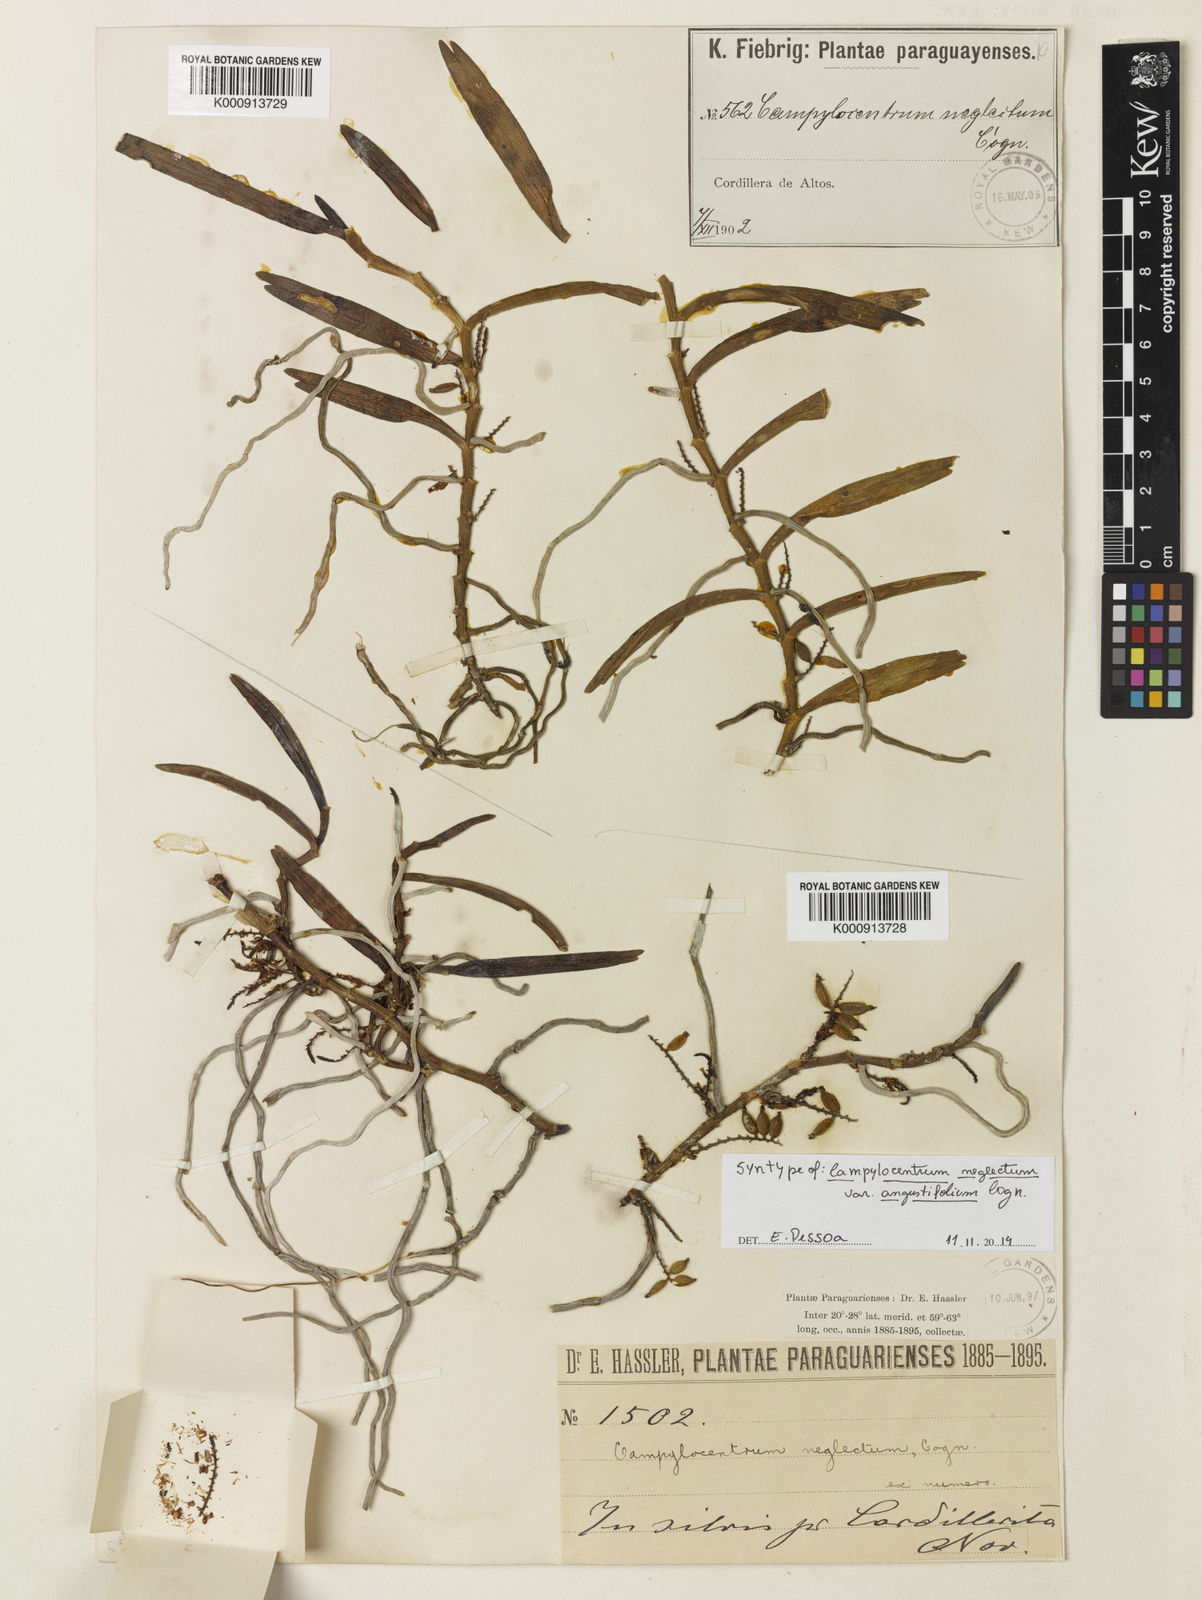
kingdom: Plantae
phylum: Tracheophyta
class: Liliopsida
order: Asparagales
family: Orchidaceae
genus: Campylocentrum
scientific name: Campylocentrum neglectum
